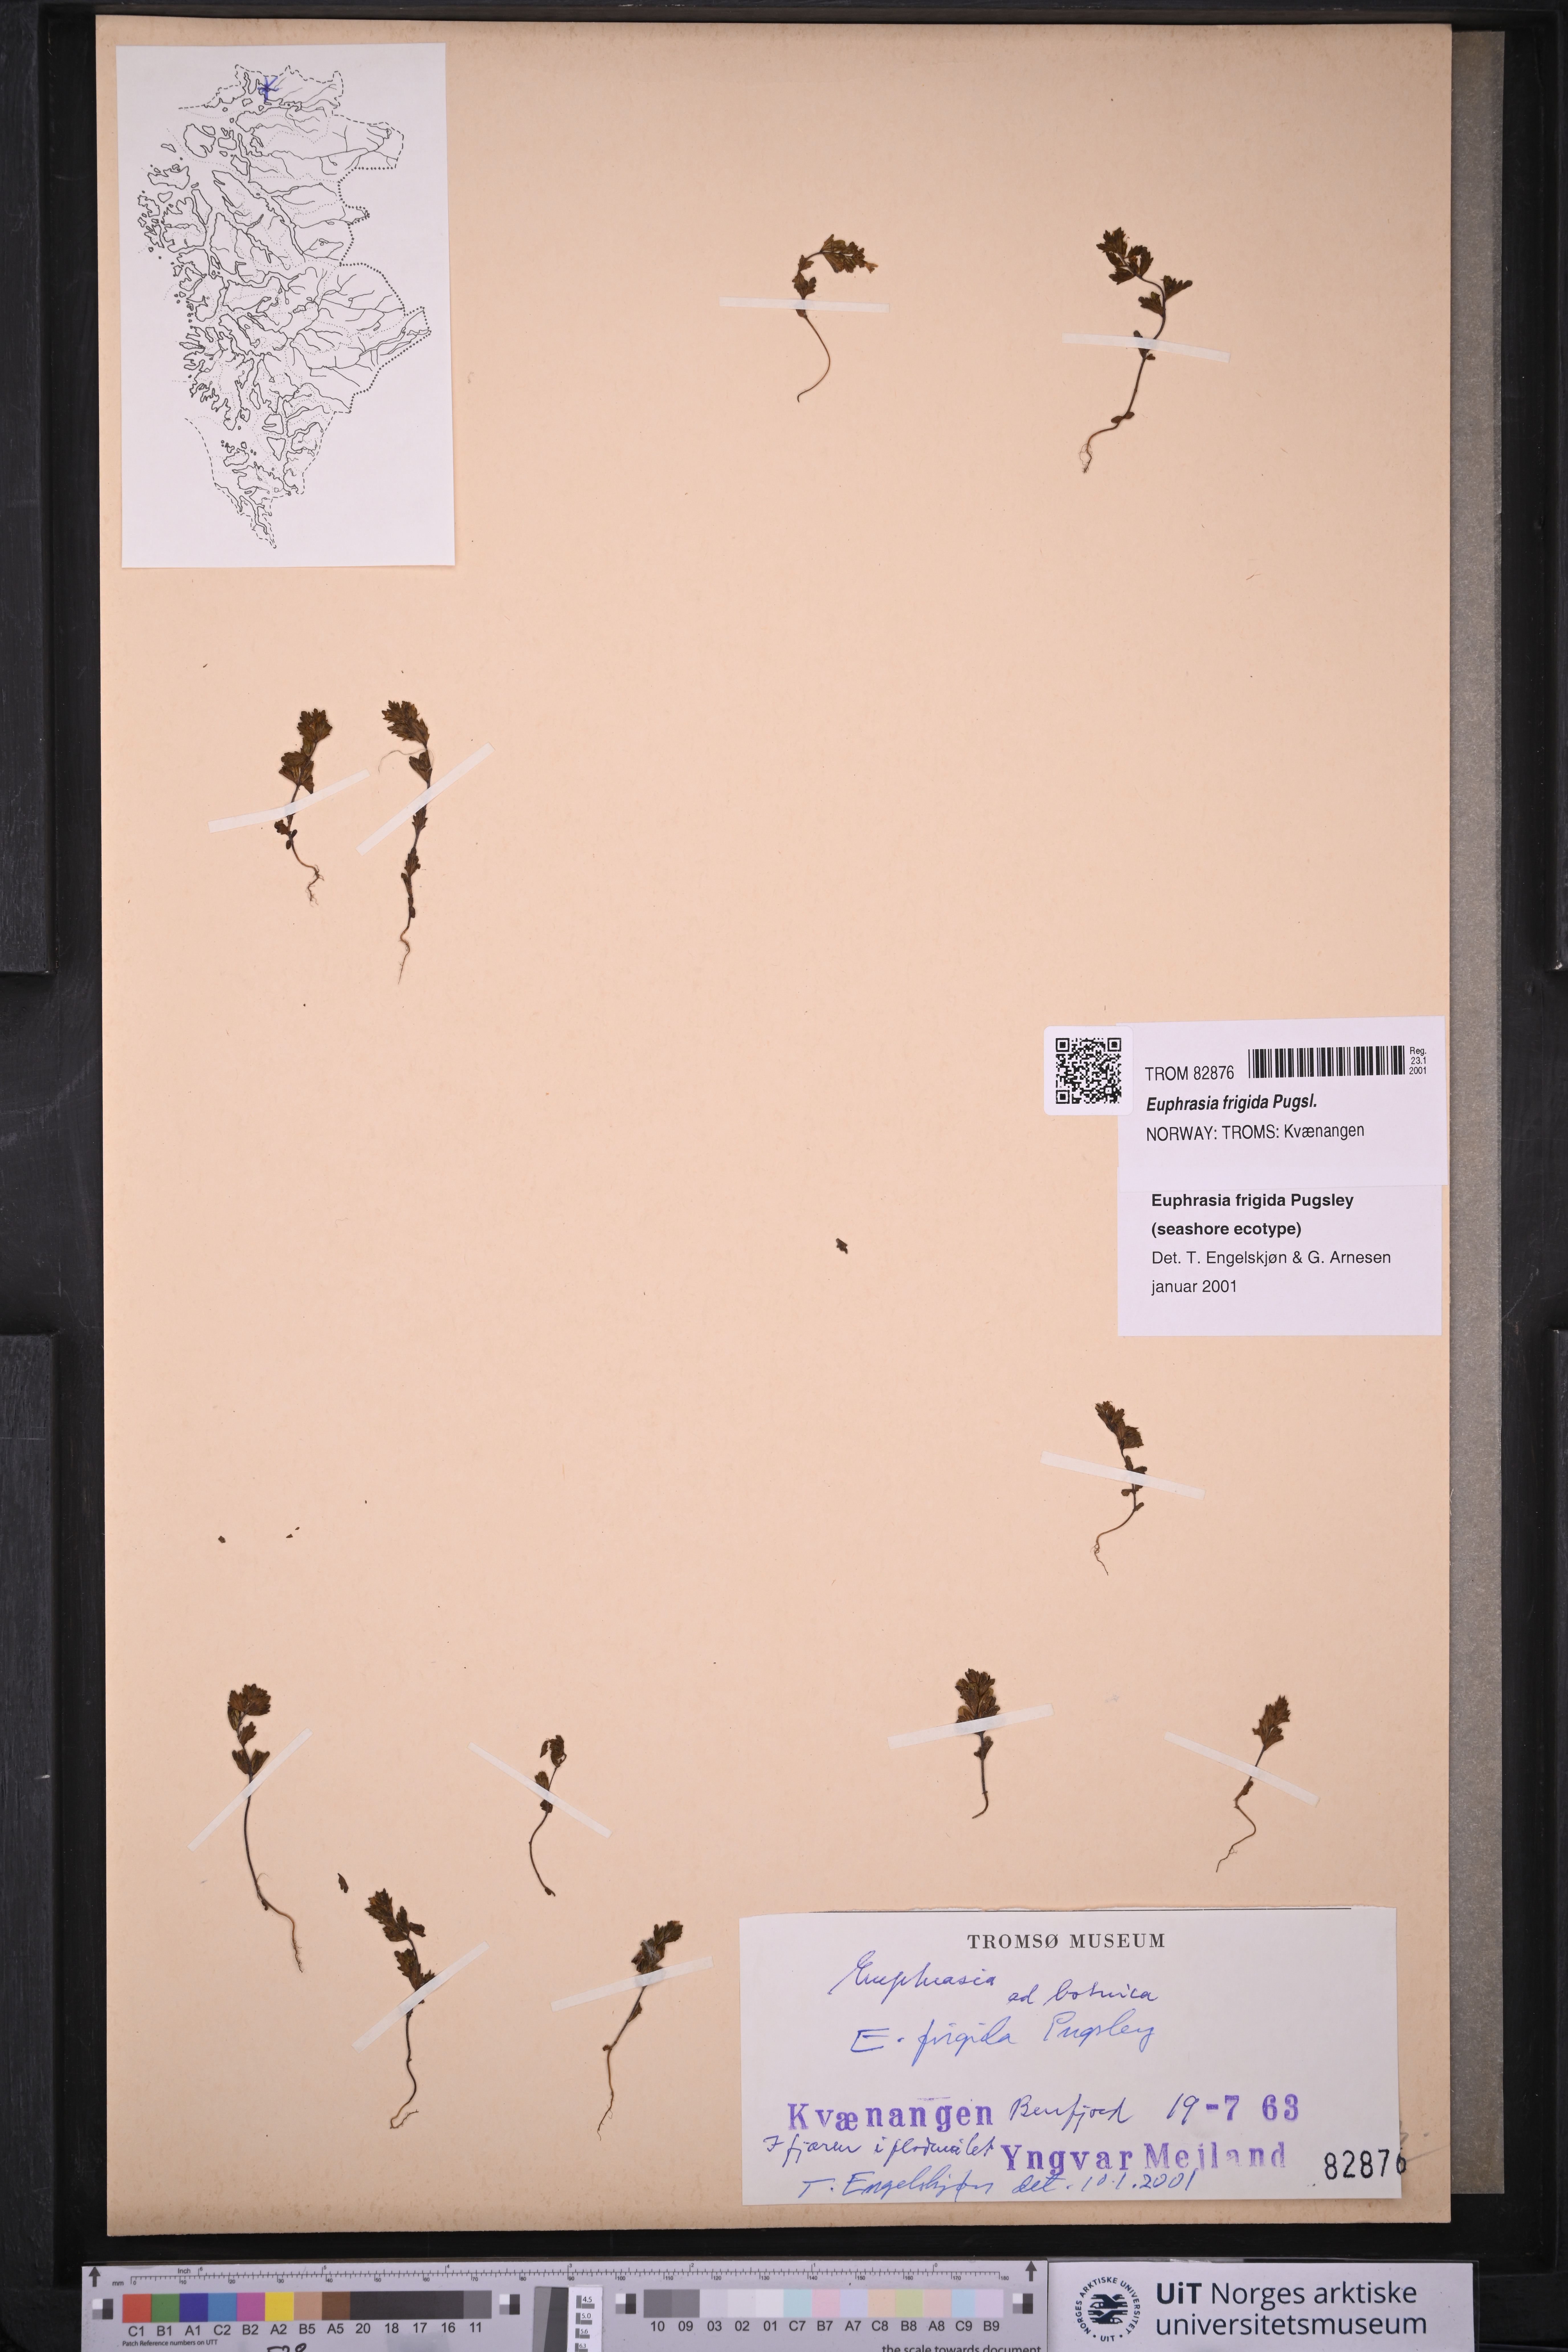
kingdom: Plantae
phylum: Tracheophyta
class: Magnoliopsida
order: Lamiales
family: Orobanchaceae
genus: Euphrasia
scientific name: Euphrasia frigida
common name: An eyebright
